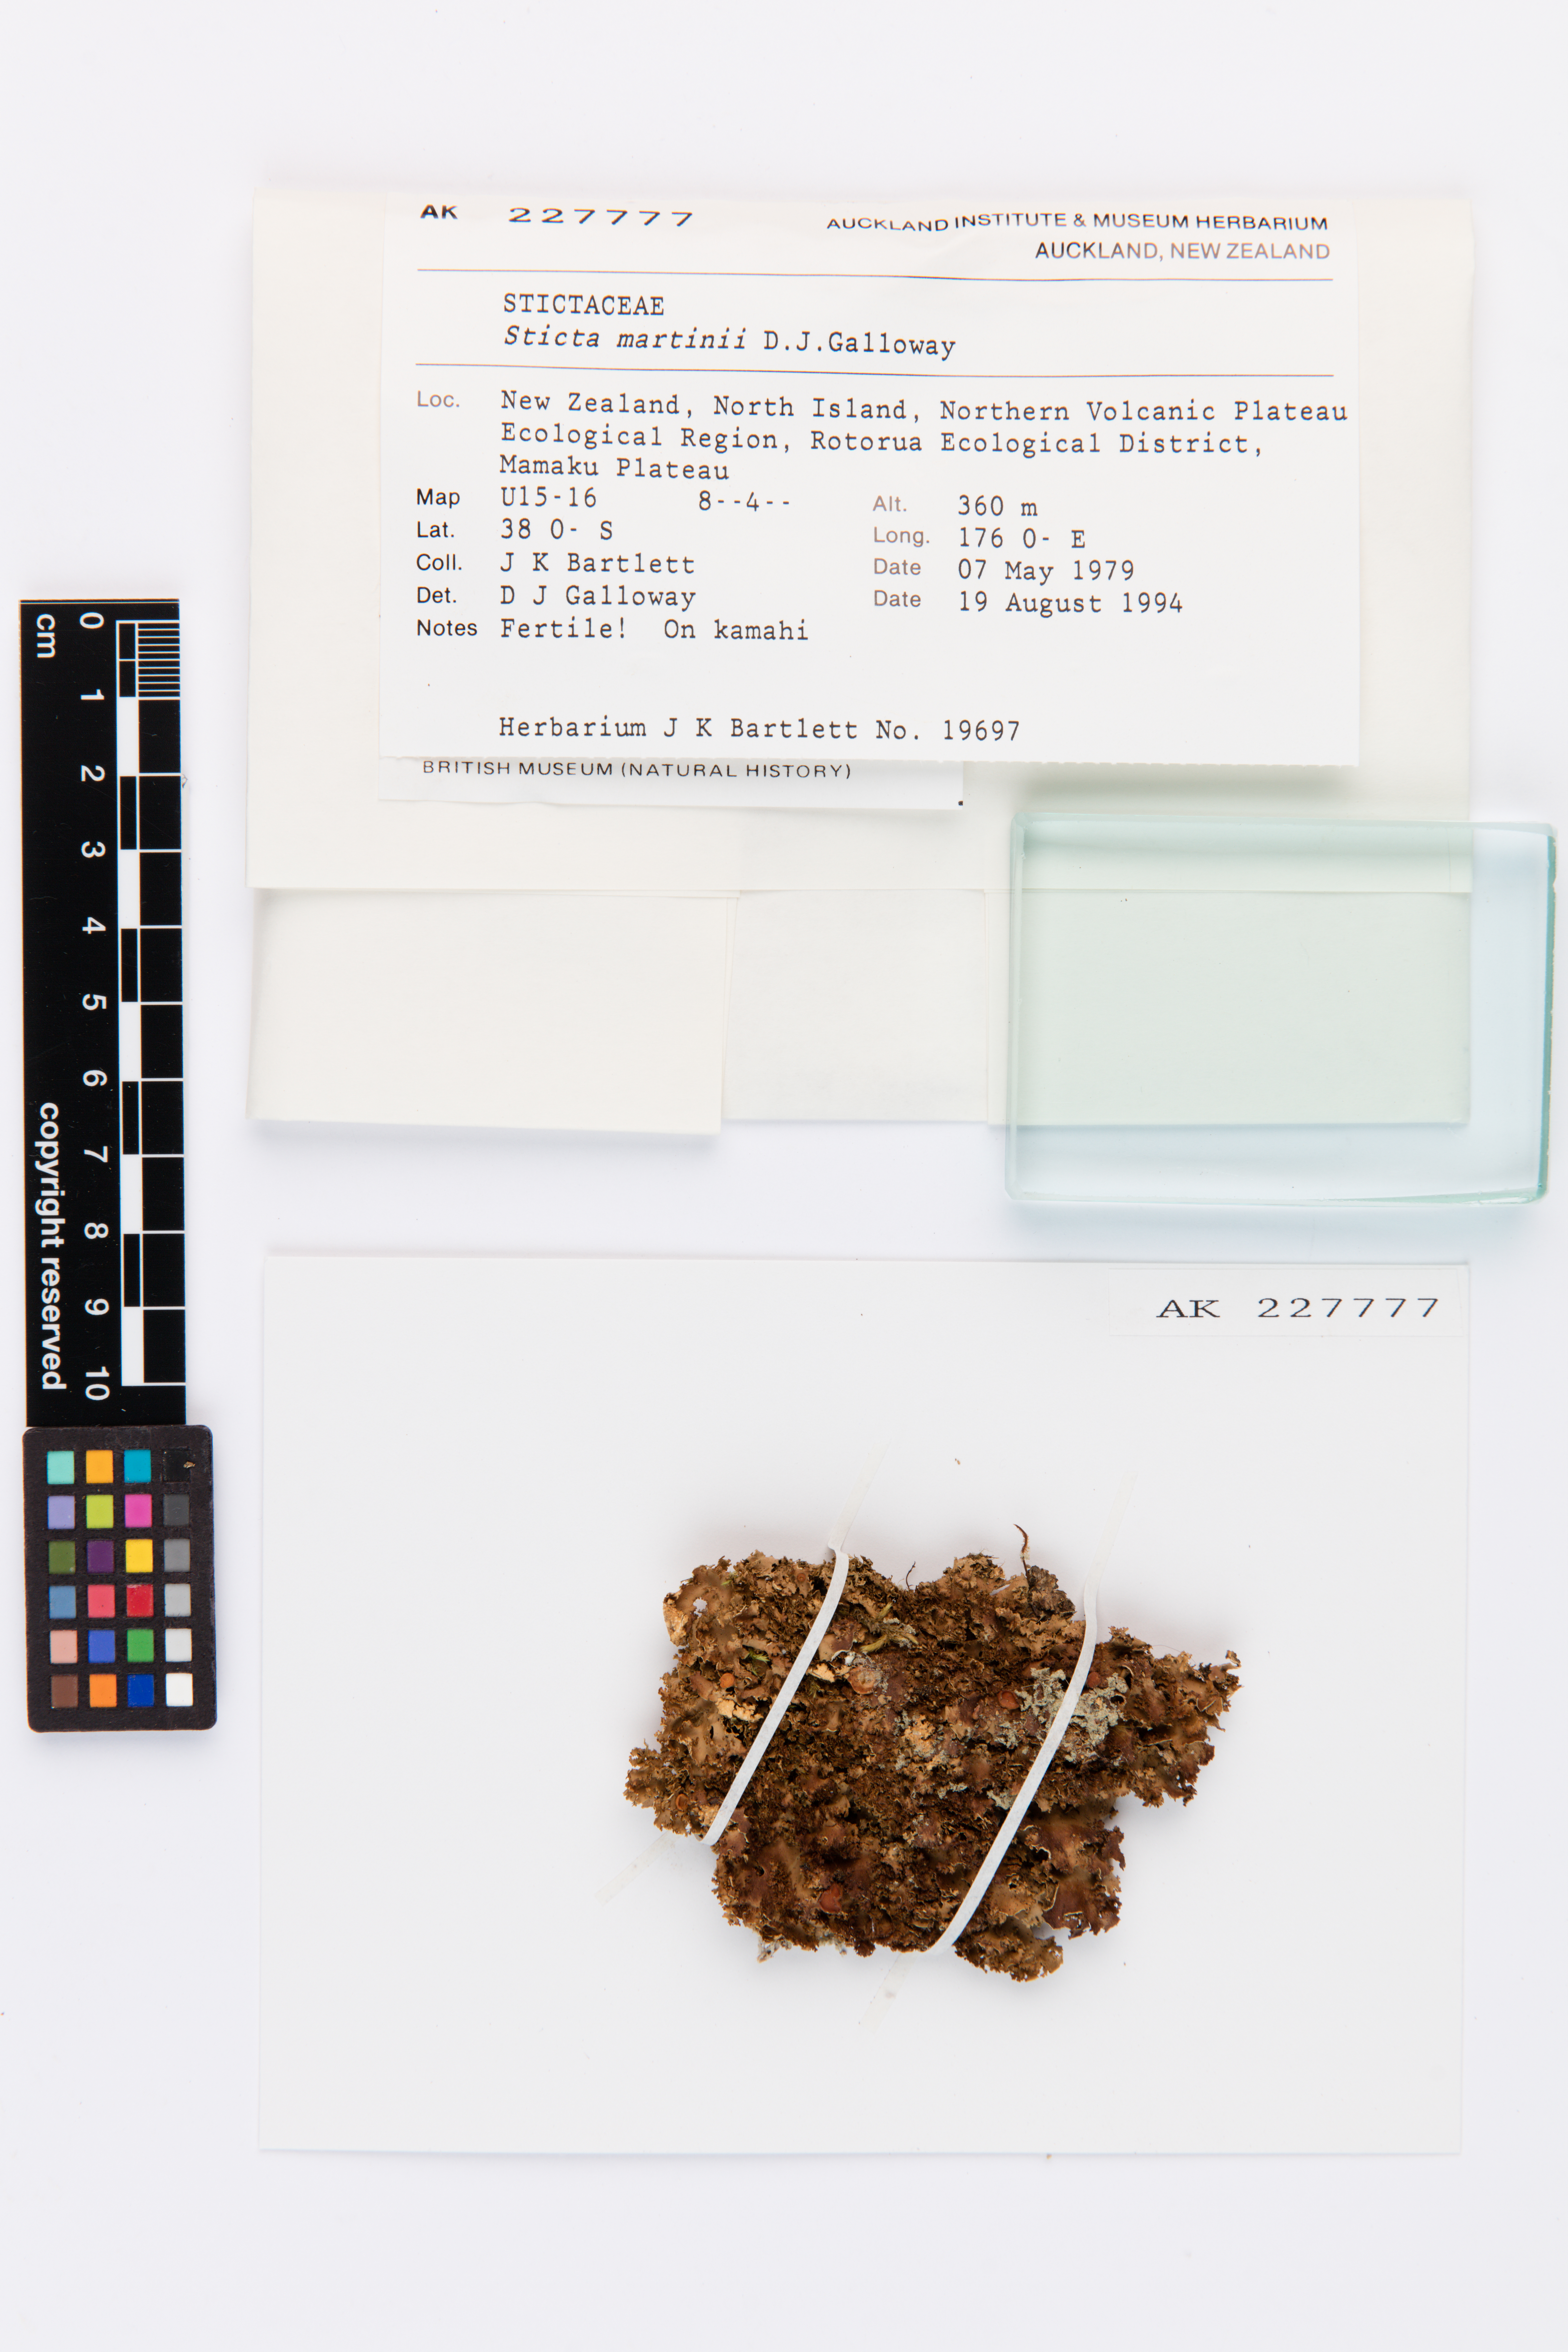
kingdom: Fungi
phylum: Ascomycota
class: Lecanoromycetes
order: Peltigerales
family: Lobariaceae
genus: Sticta
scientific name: Sticta martinii
